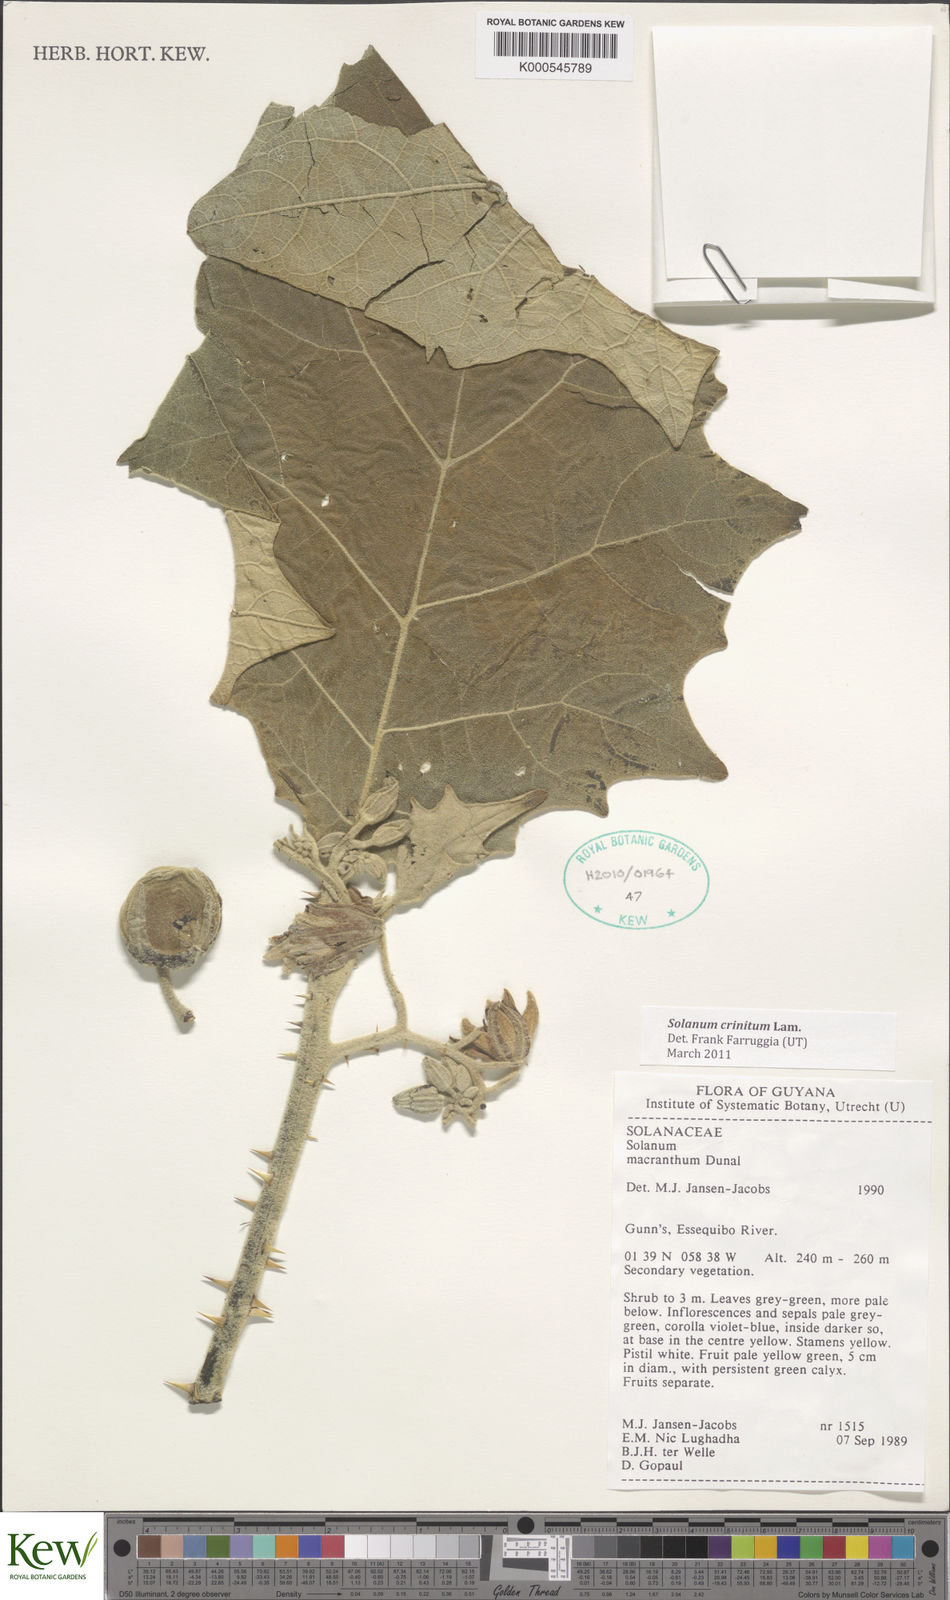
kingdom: Plantae
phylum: Tracheophyta
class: Magnoliopsida
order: Solanales
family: Solanaceae
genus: Solanum
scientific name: Solanum crinitum
